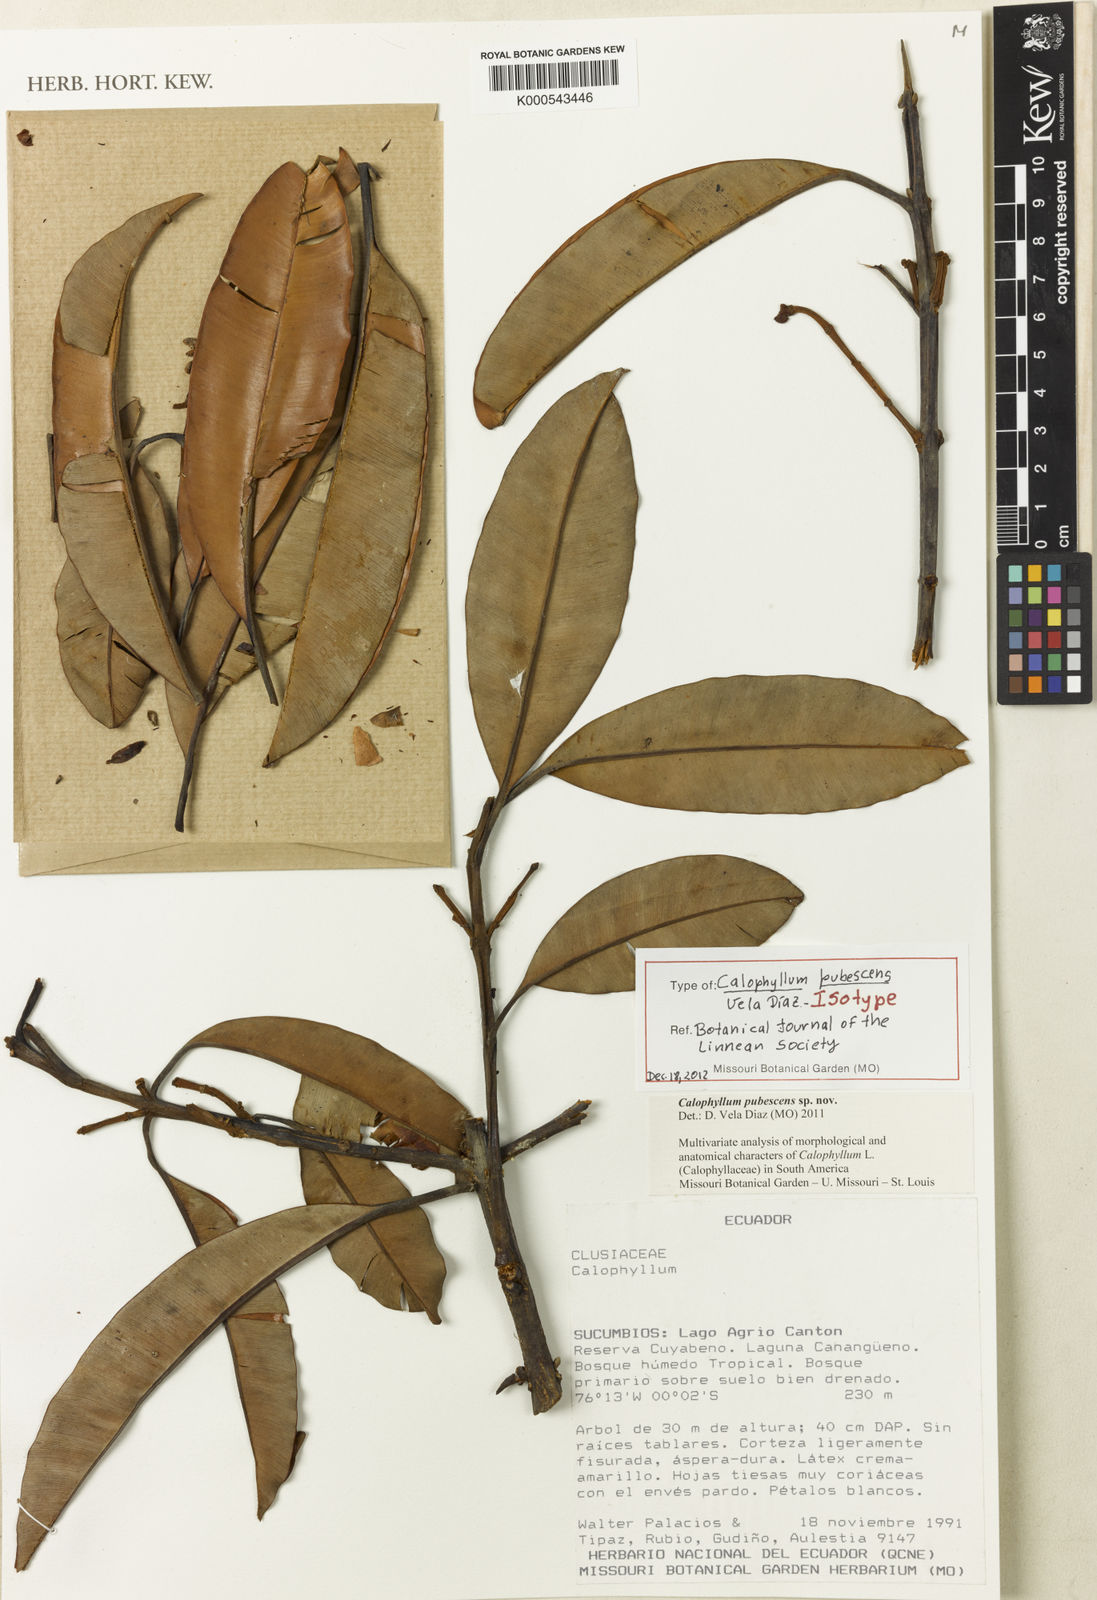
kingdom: Plantae
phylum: Tracheophyta
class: Magnoliopsida
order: Malpighiales
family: Calophyllaceae
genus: Calophyllum
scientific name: Calophyllum
